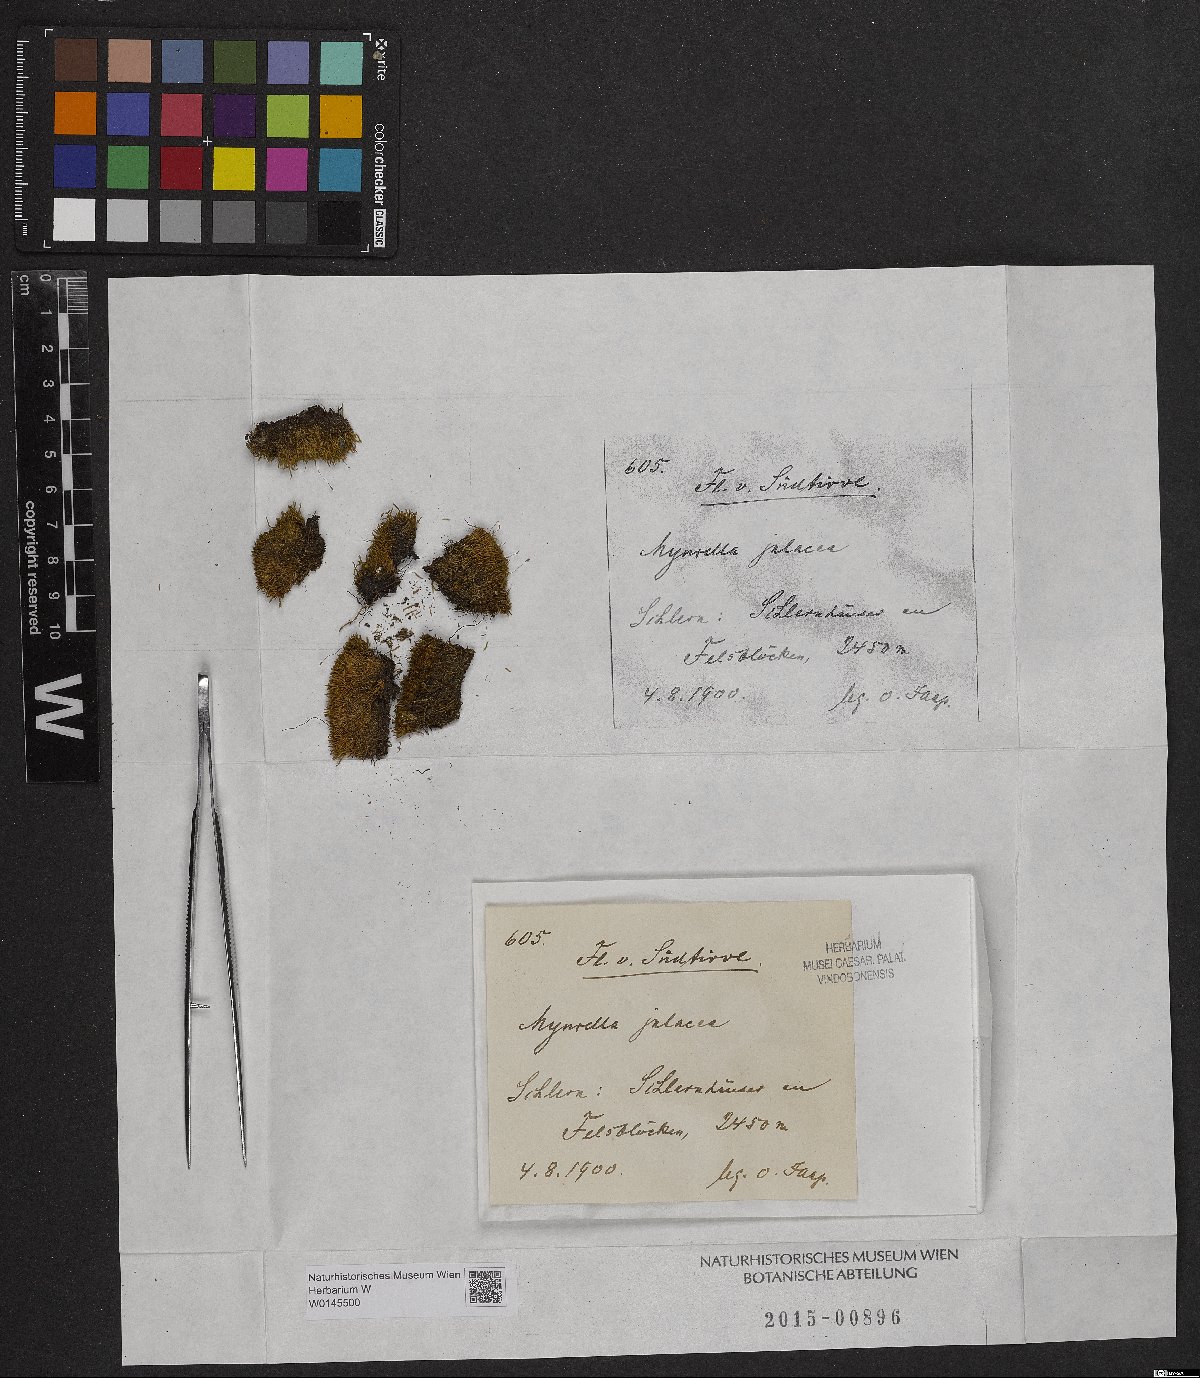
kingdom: Plantae
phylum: Bryophyta
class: Bryopsida
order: Hypnales
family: Plagiotheciaceae
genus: Myurella
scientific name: Myurella julacea
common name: Small mousetail moss
